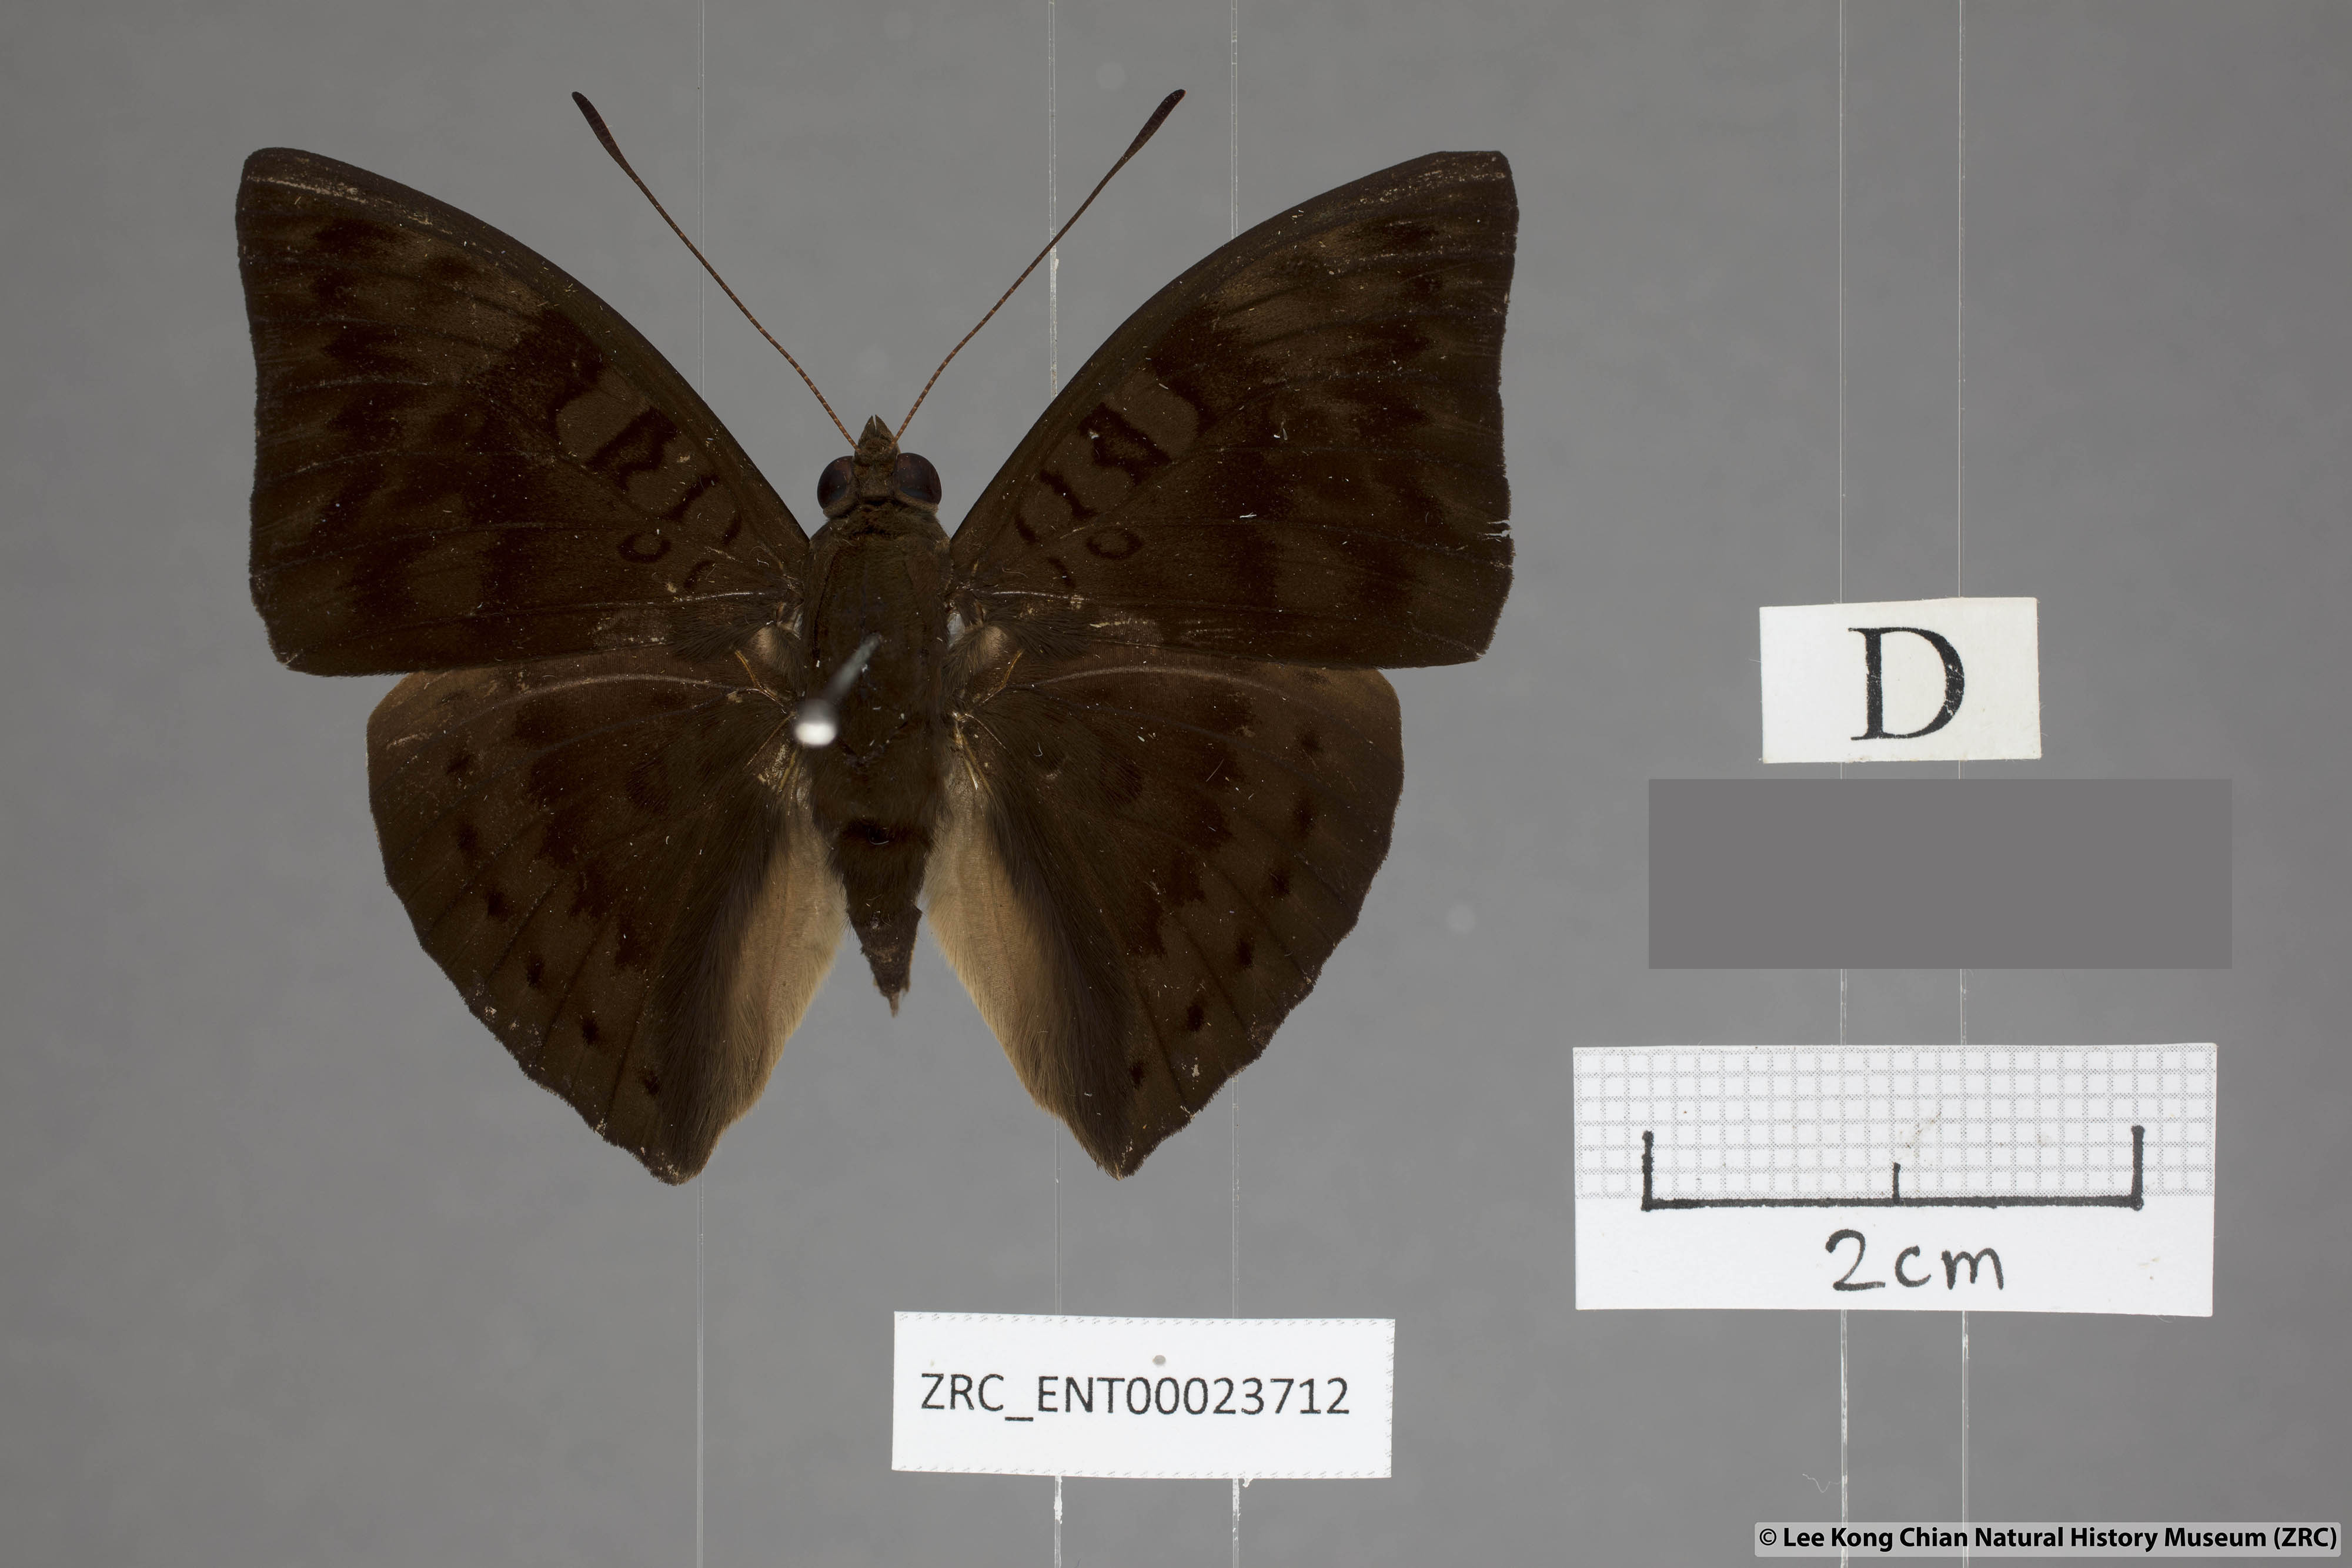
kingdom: Animalia
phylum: Arthropoda
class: Insecta
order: Lepidoptera
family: Nymphalidae
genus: Euthalia
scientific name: Euthalia merta
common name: White tipped baron
